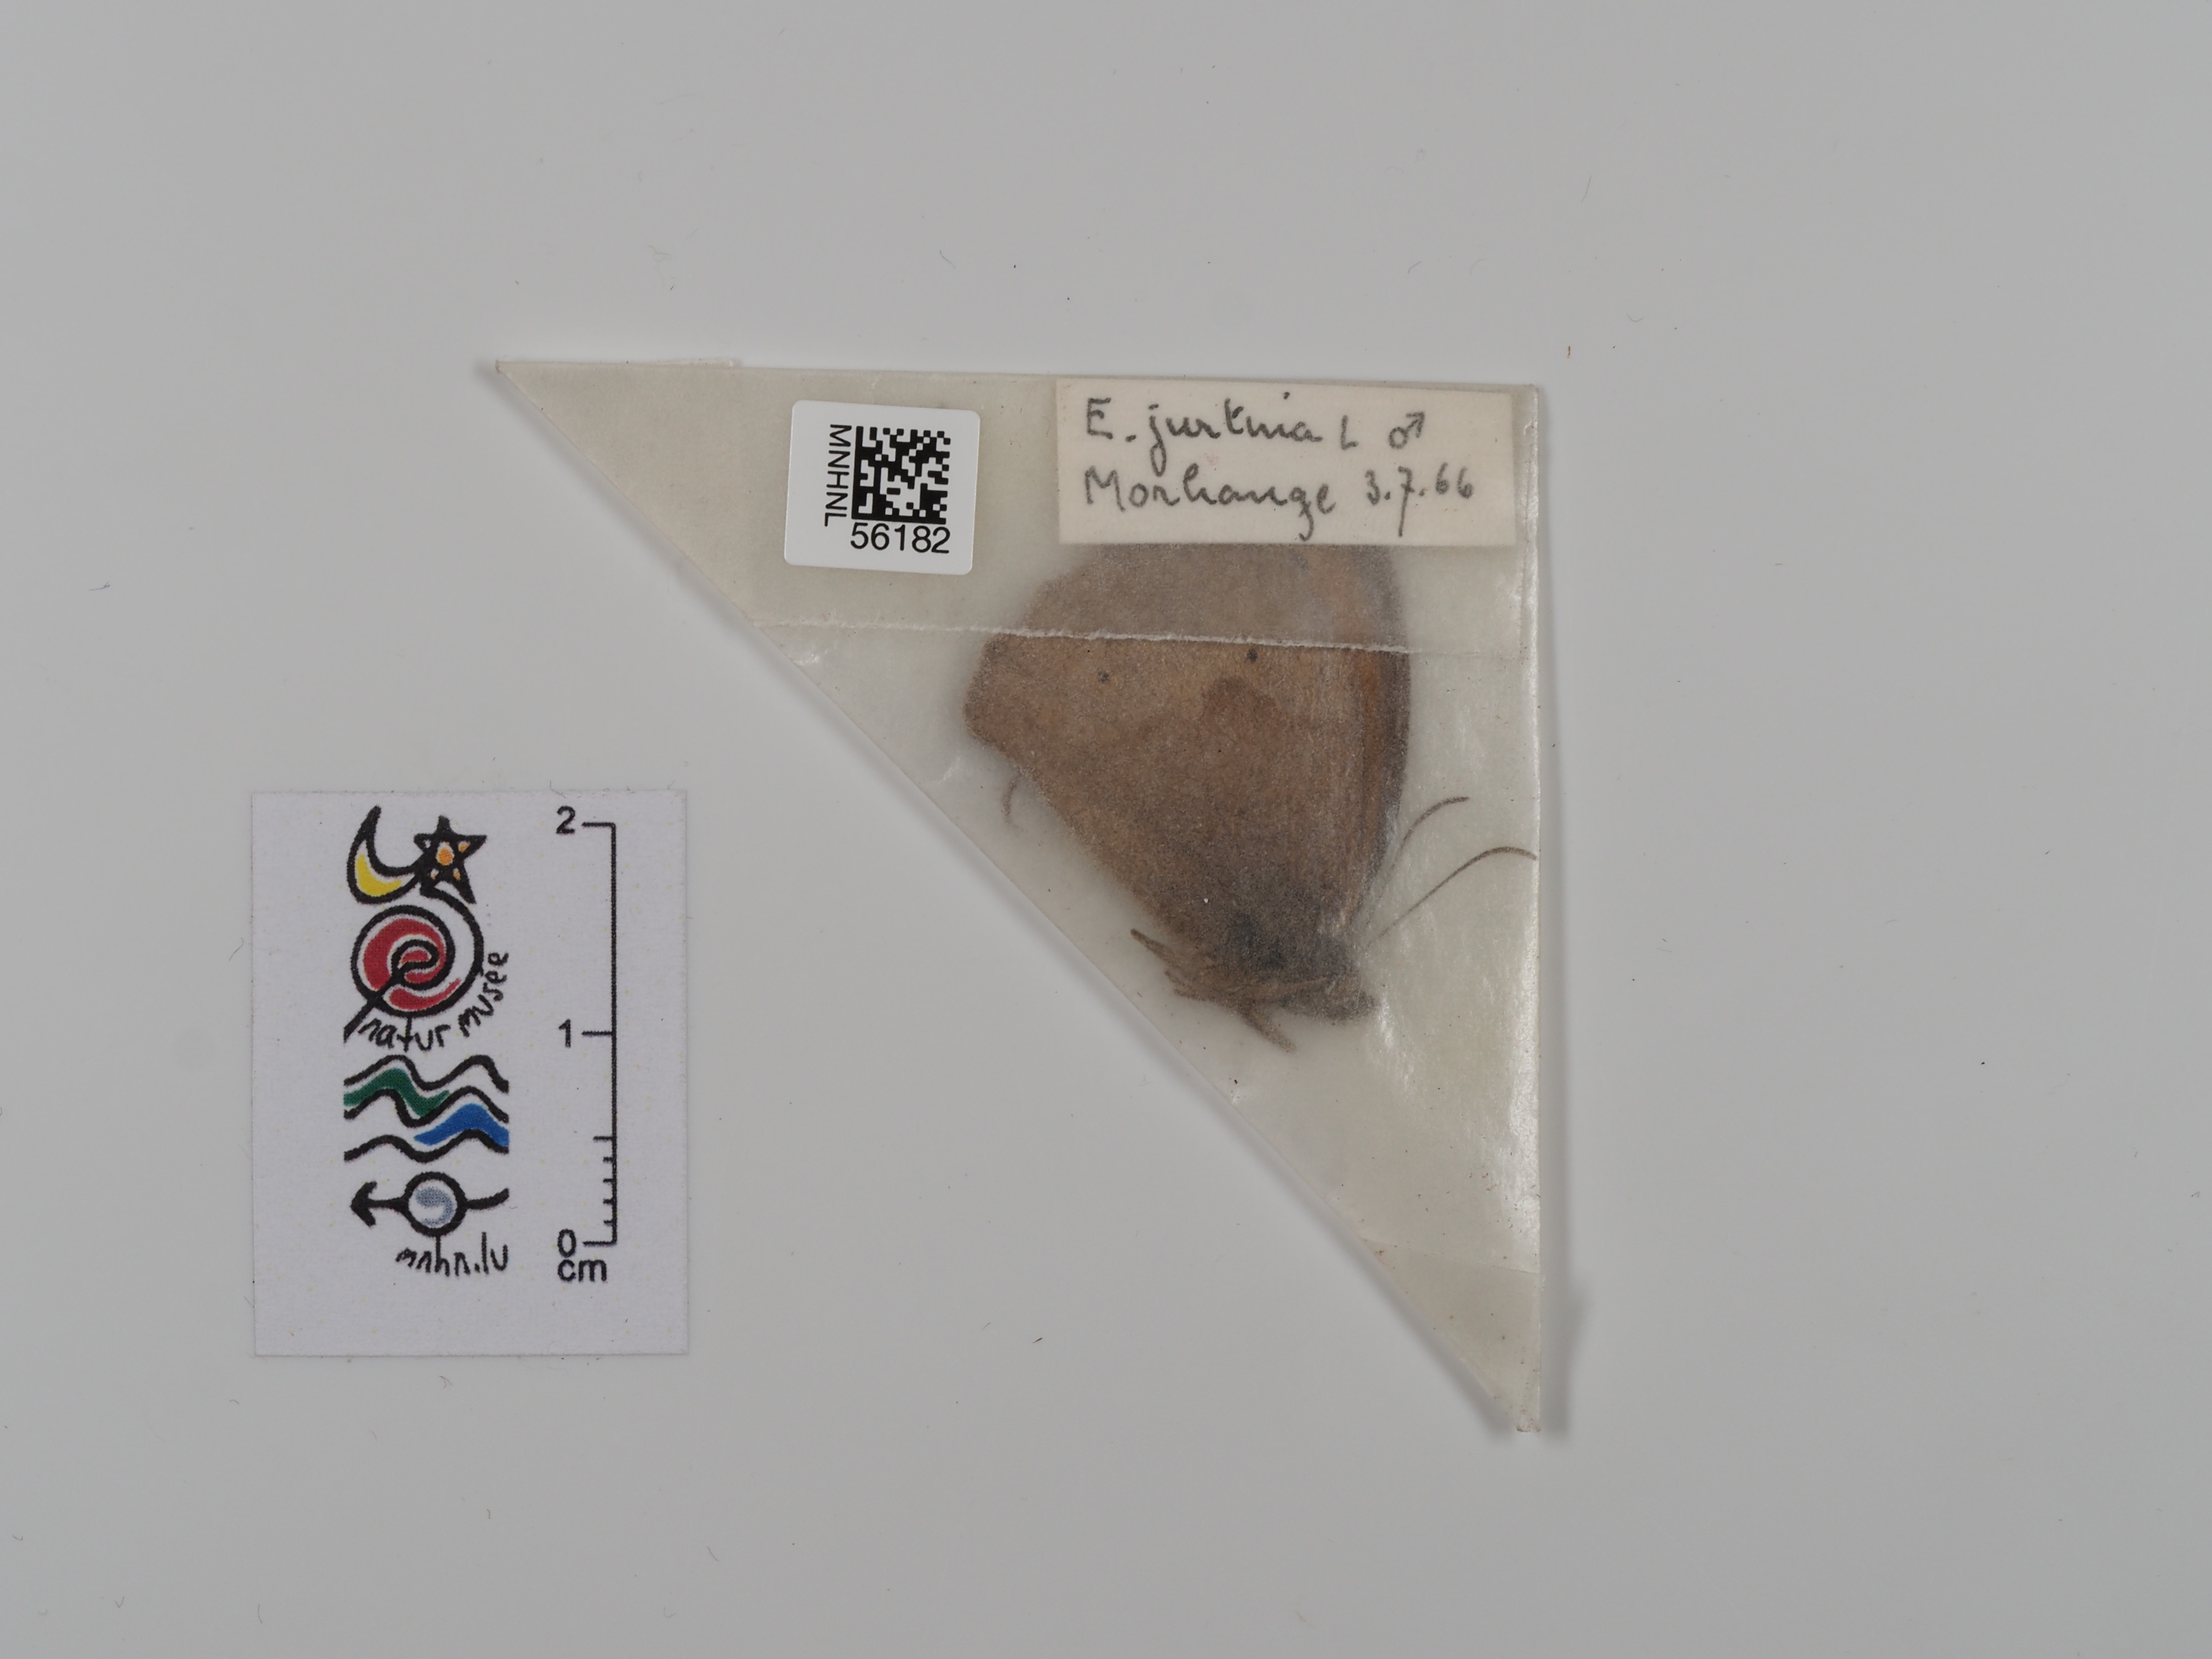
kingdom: Animalia
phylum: Arthropoda
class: Insecta
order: Lepidoptera
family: Nymphalidae
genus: Maniola
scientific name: Maniola jurtina
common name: Meadow brown
